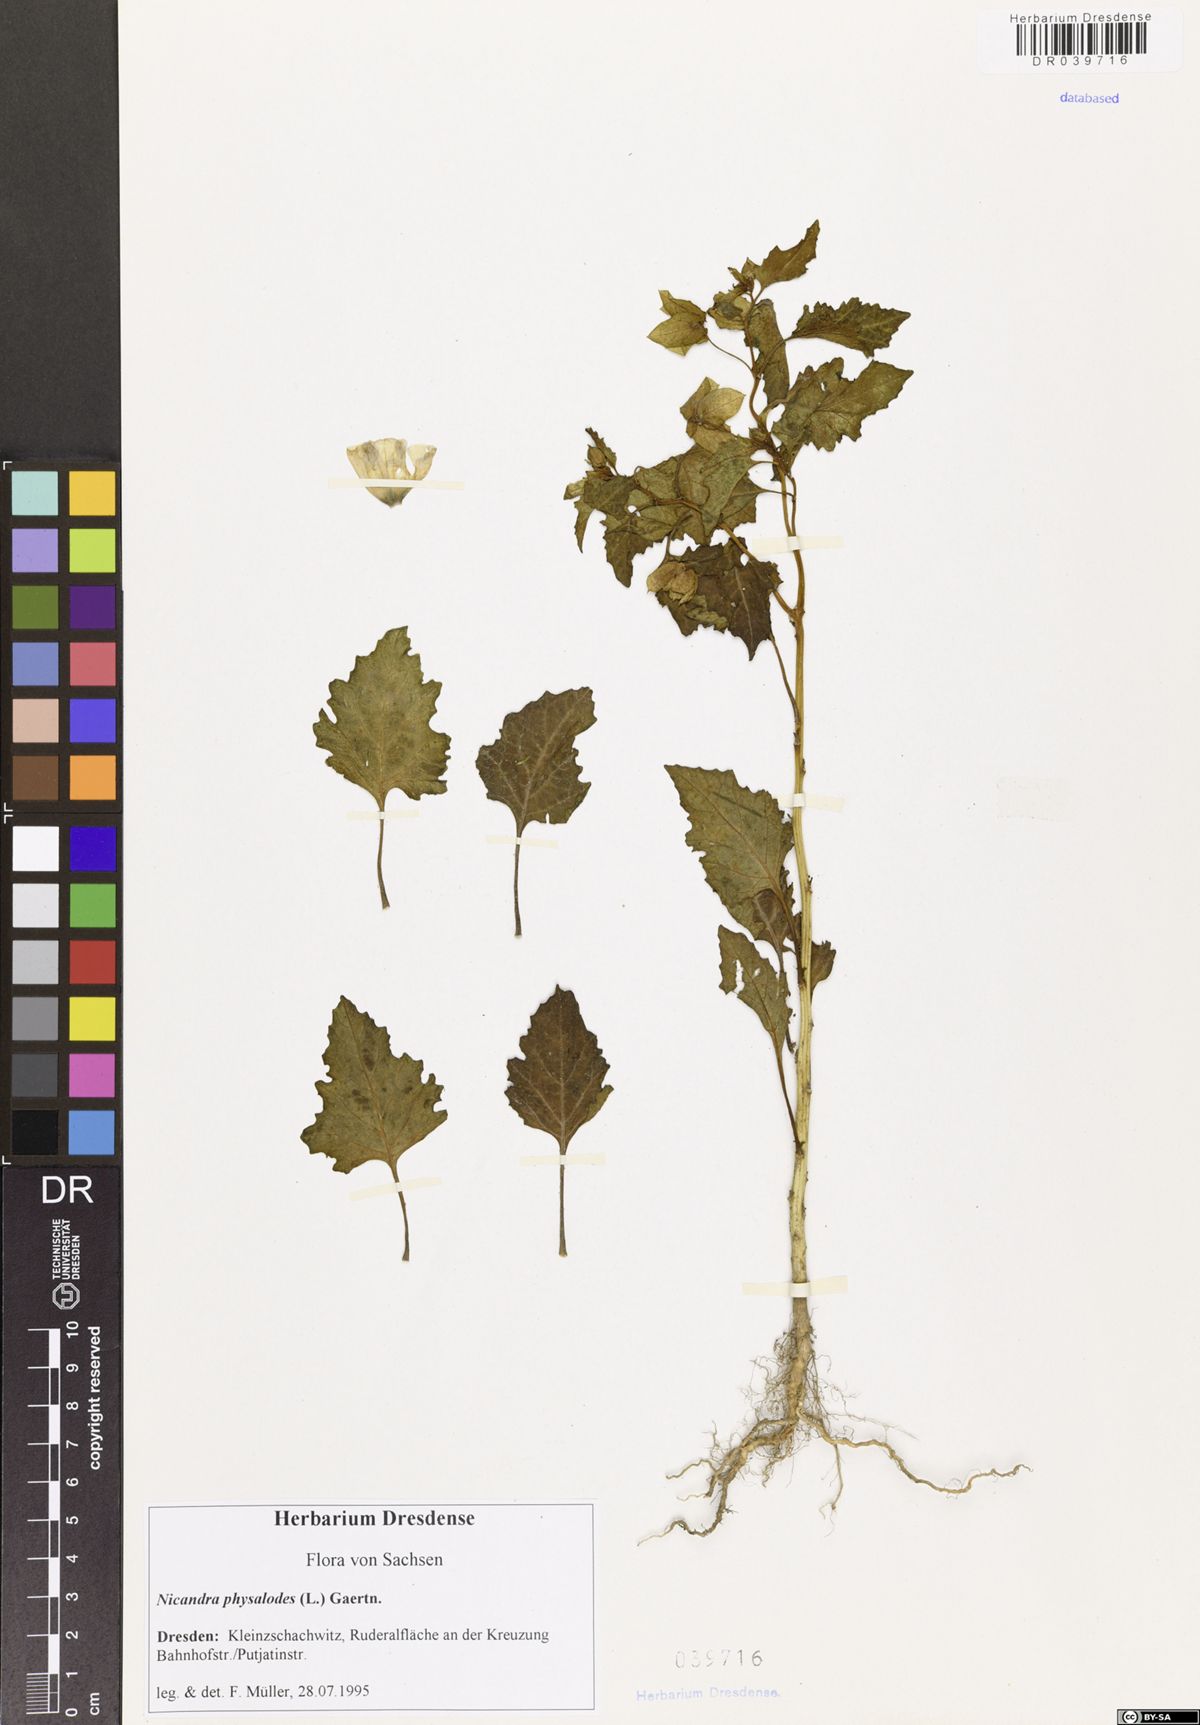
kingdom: Plantae
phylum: Tracheophyta
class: Magnoliopsida
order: Solanales
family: Solanaceae
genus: Nicandra
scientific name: Nicandra physalodes
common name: Apple-of-peru
